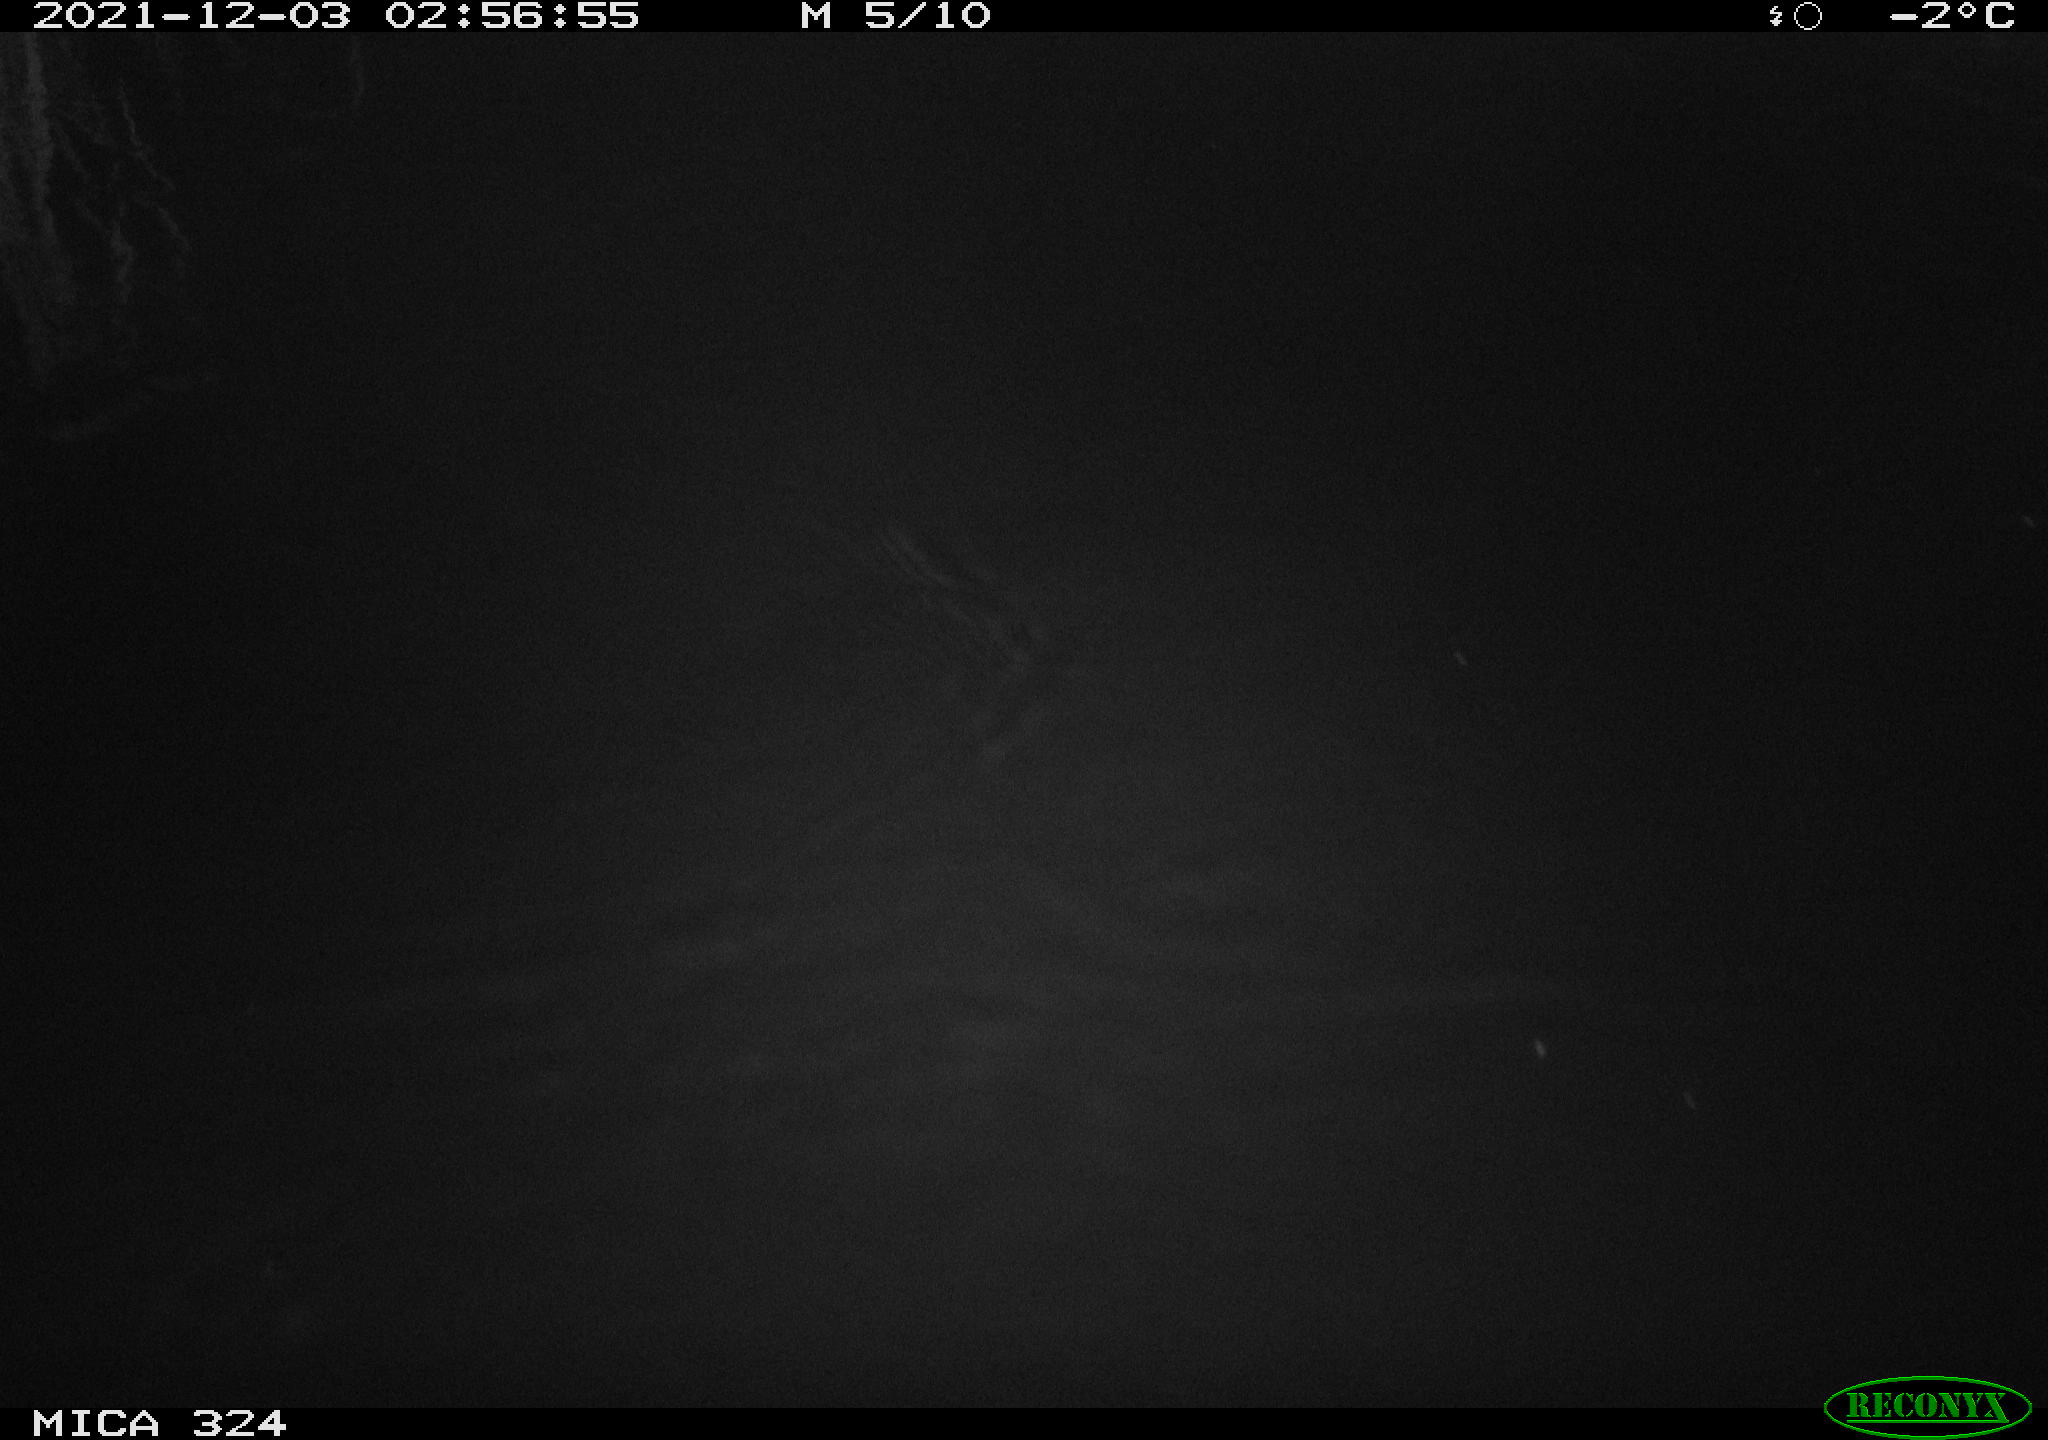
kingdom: Animalia
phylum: Chordata
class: Mammalia
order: Rodentia
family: Cricetidae
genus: Ondatra
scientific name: Ondatra zibethicus
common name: Muskrat
